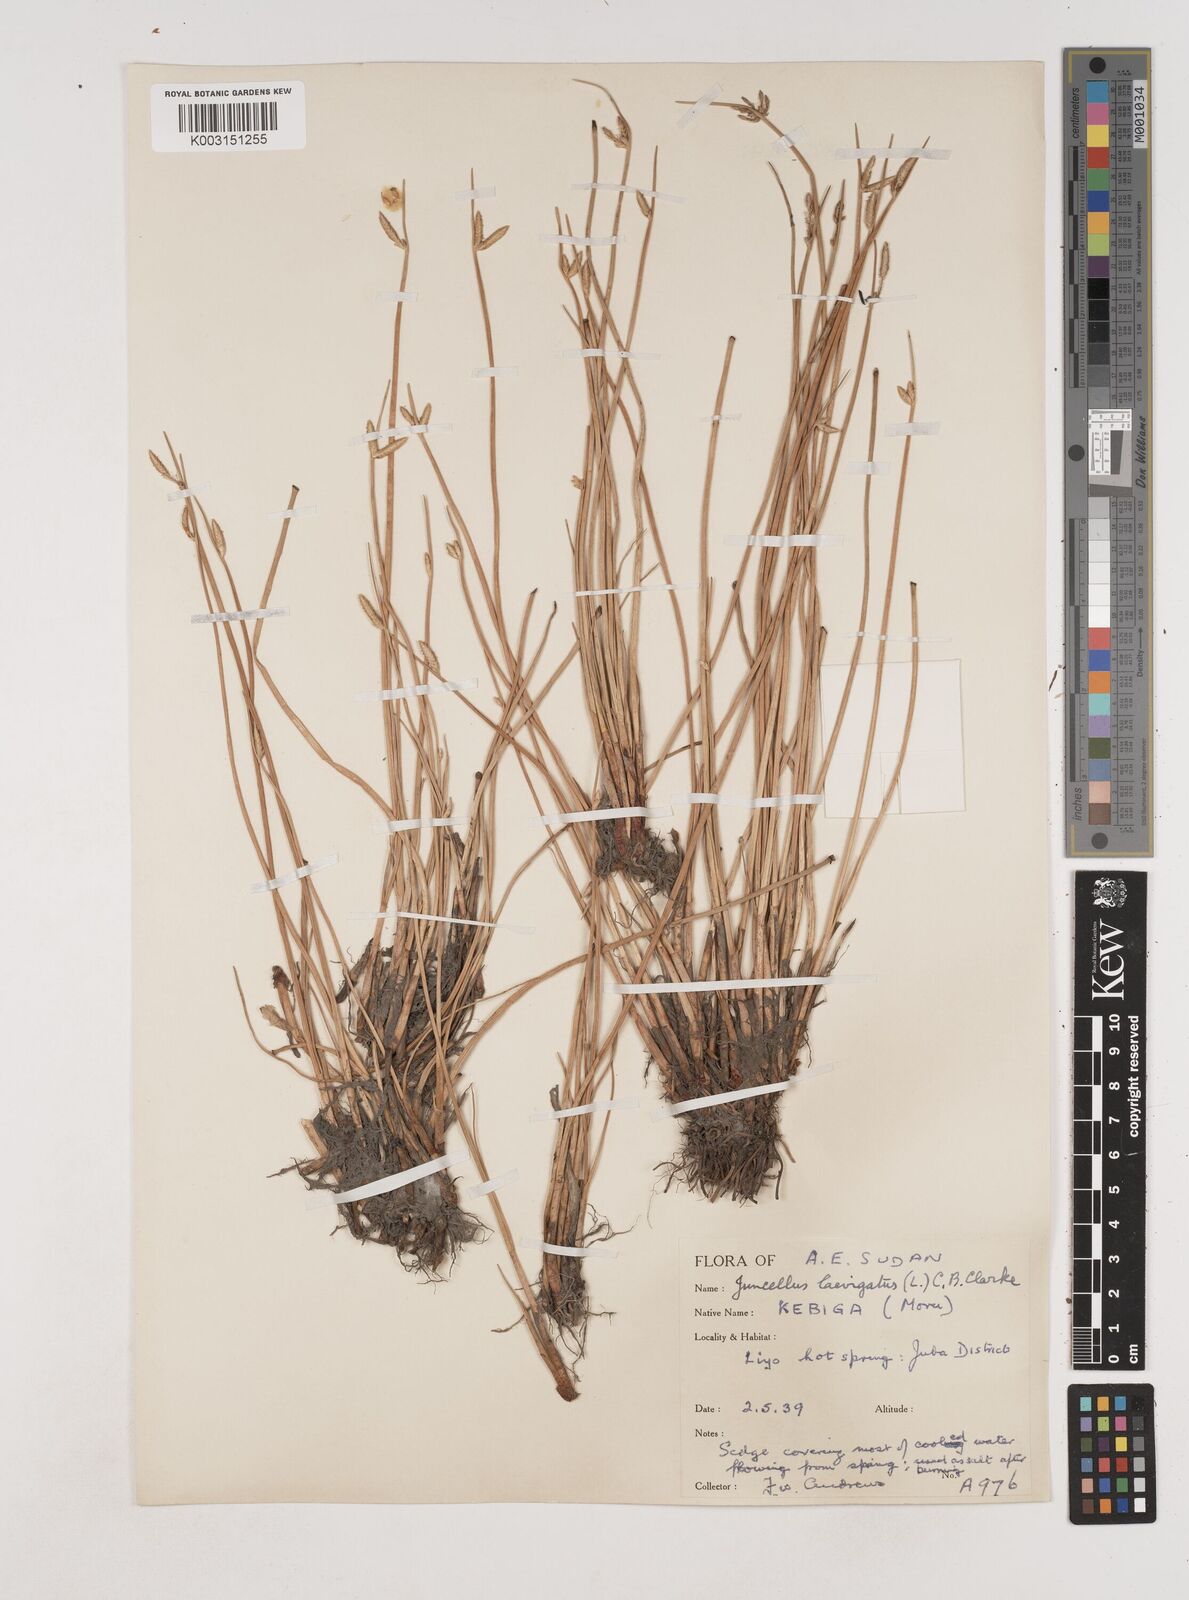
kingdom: Plantae
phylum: Tracheophyta
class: Liliopsida
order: Poales
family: Cyperaceae
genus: Cyperus
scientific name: Cyperus
